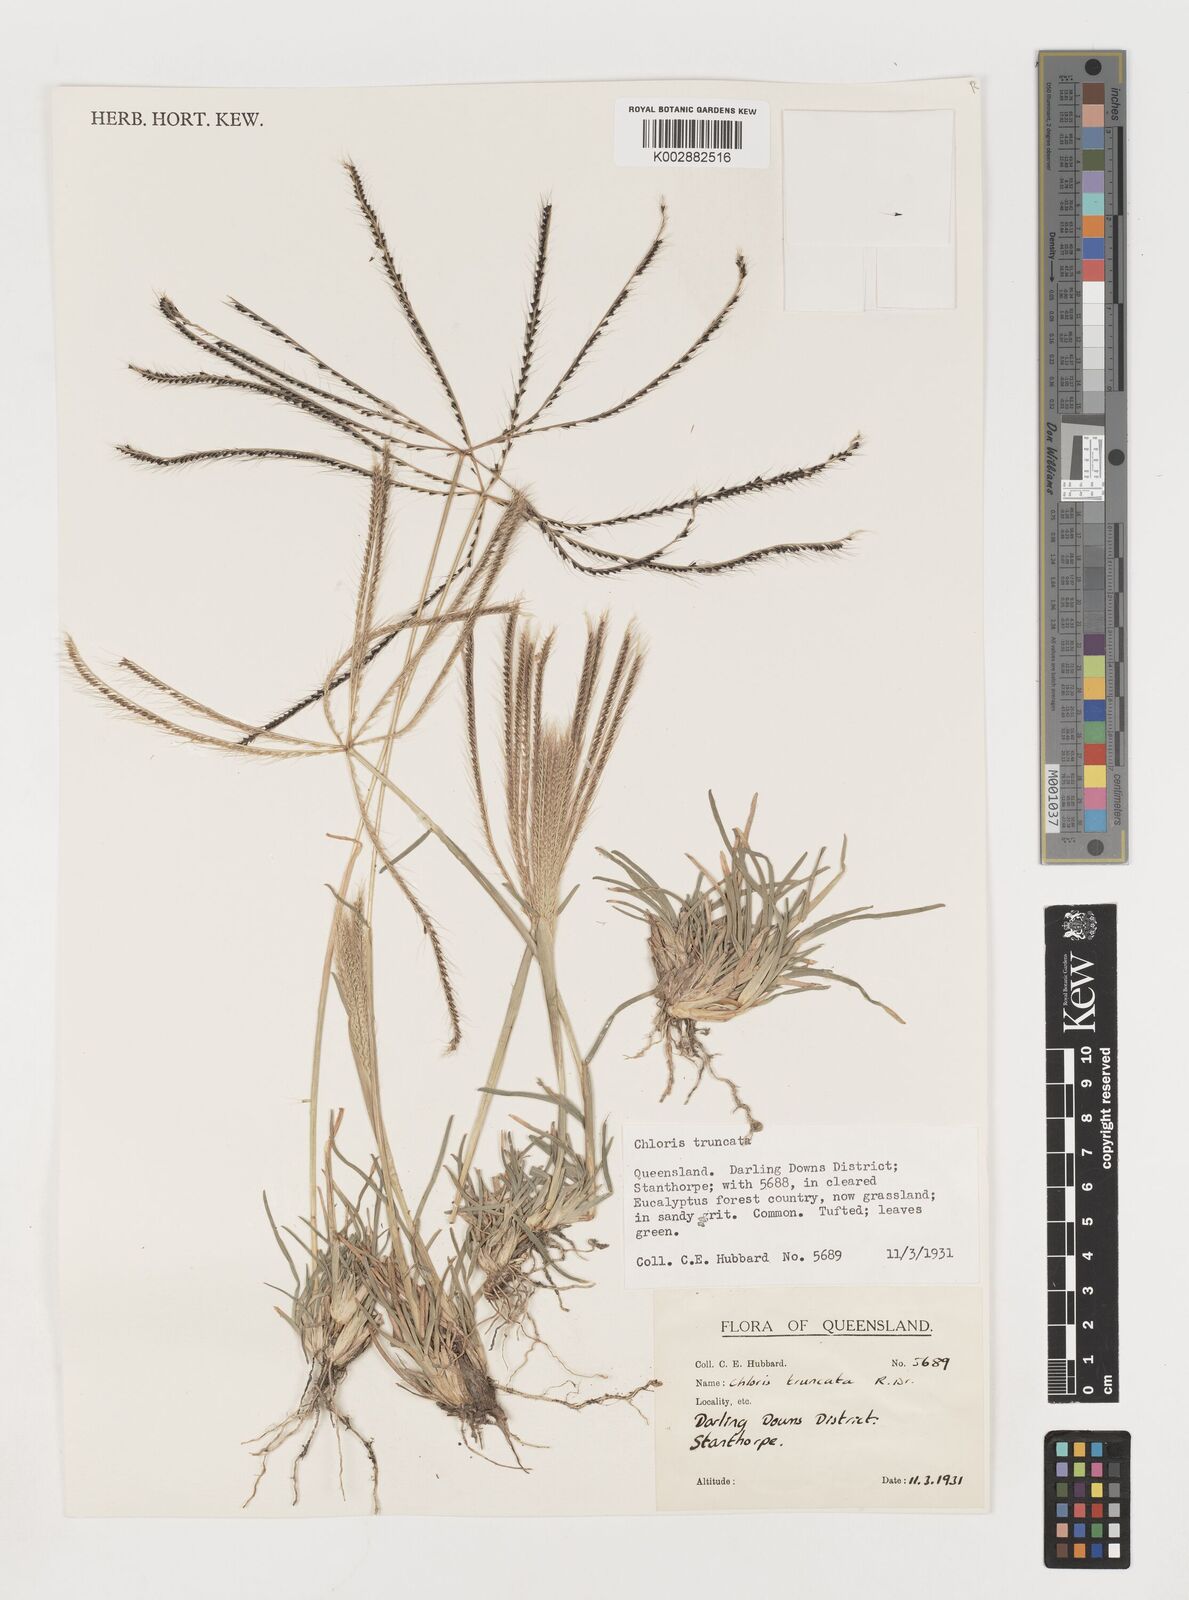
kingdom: Plantae
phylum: Tracheophyta
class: Liliopsida
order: Poales
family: Poaceae
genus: Chloris
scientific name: Chloris truncata
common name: Windmill-grass
